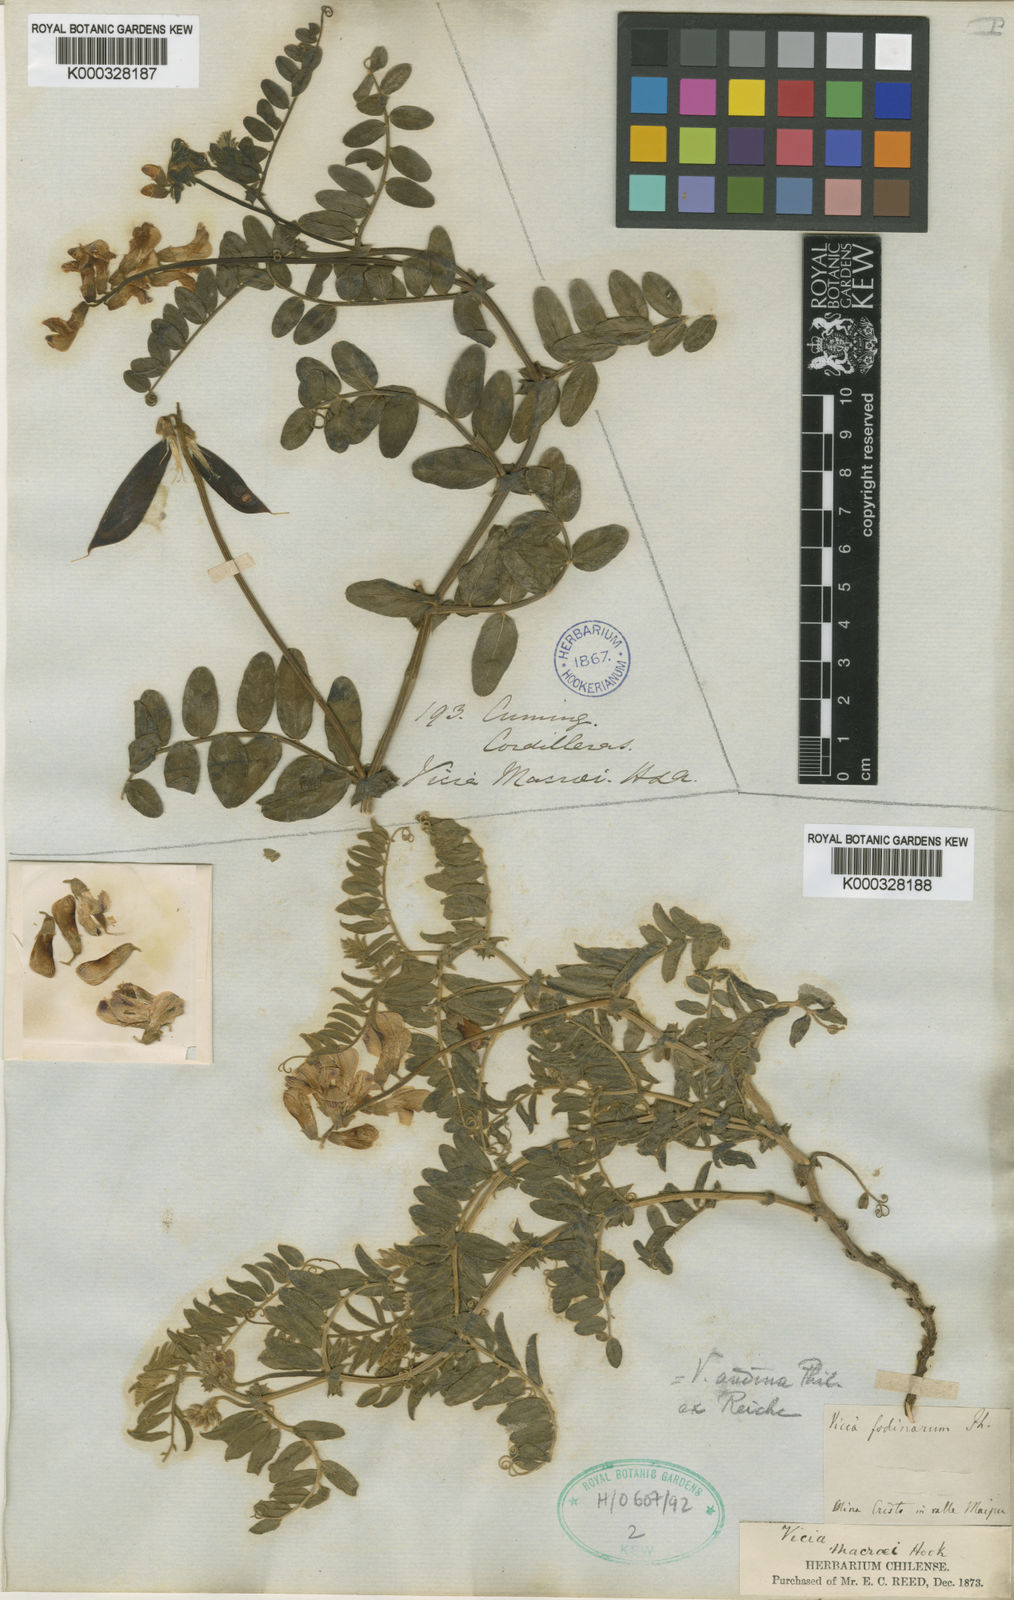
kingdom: Plantae
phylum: Tracheophyta
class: Magnoliopsida
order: Fabales
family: Fabaceae
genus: Vicia
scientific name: Vicia andina
